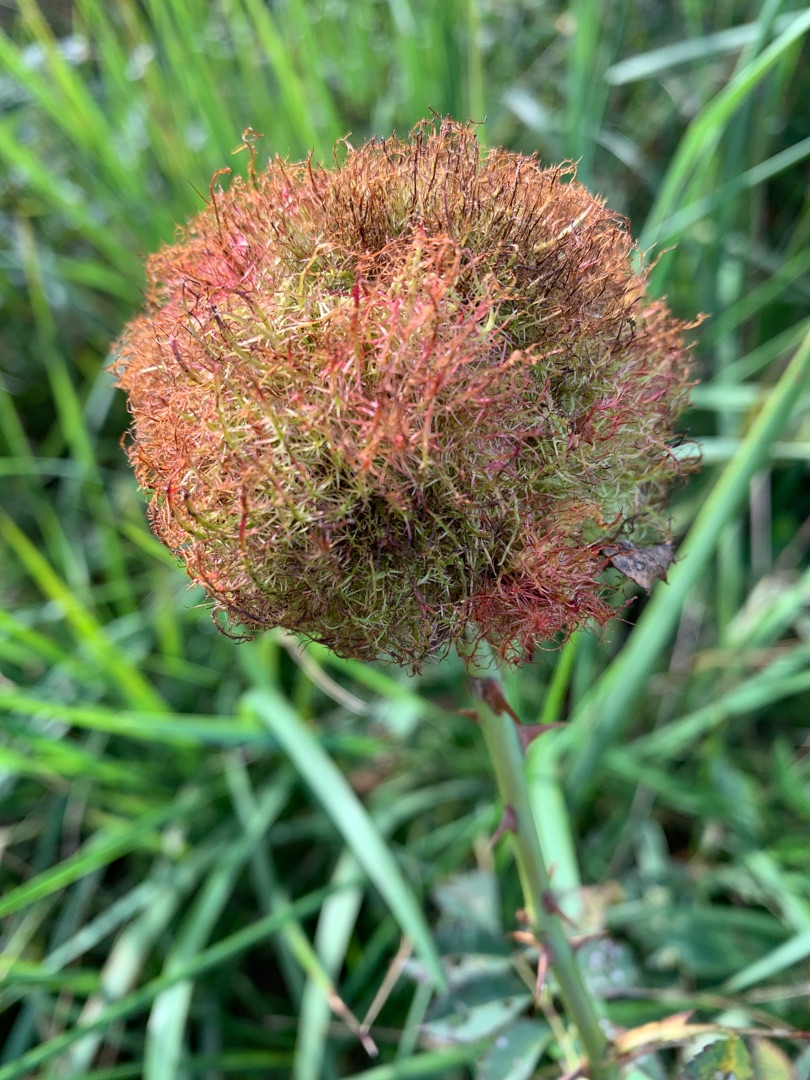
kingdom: Animalia
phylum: Arthropoda
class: Insecta
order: Hymenoptera
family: Cynipidae
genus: Diplolepis
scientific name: Diplolepis rosae
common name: Bedeguargalhveps
